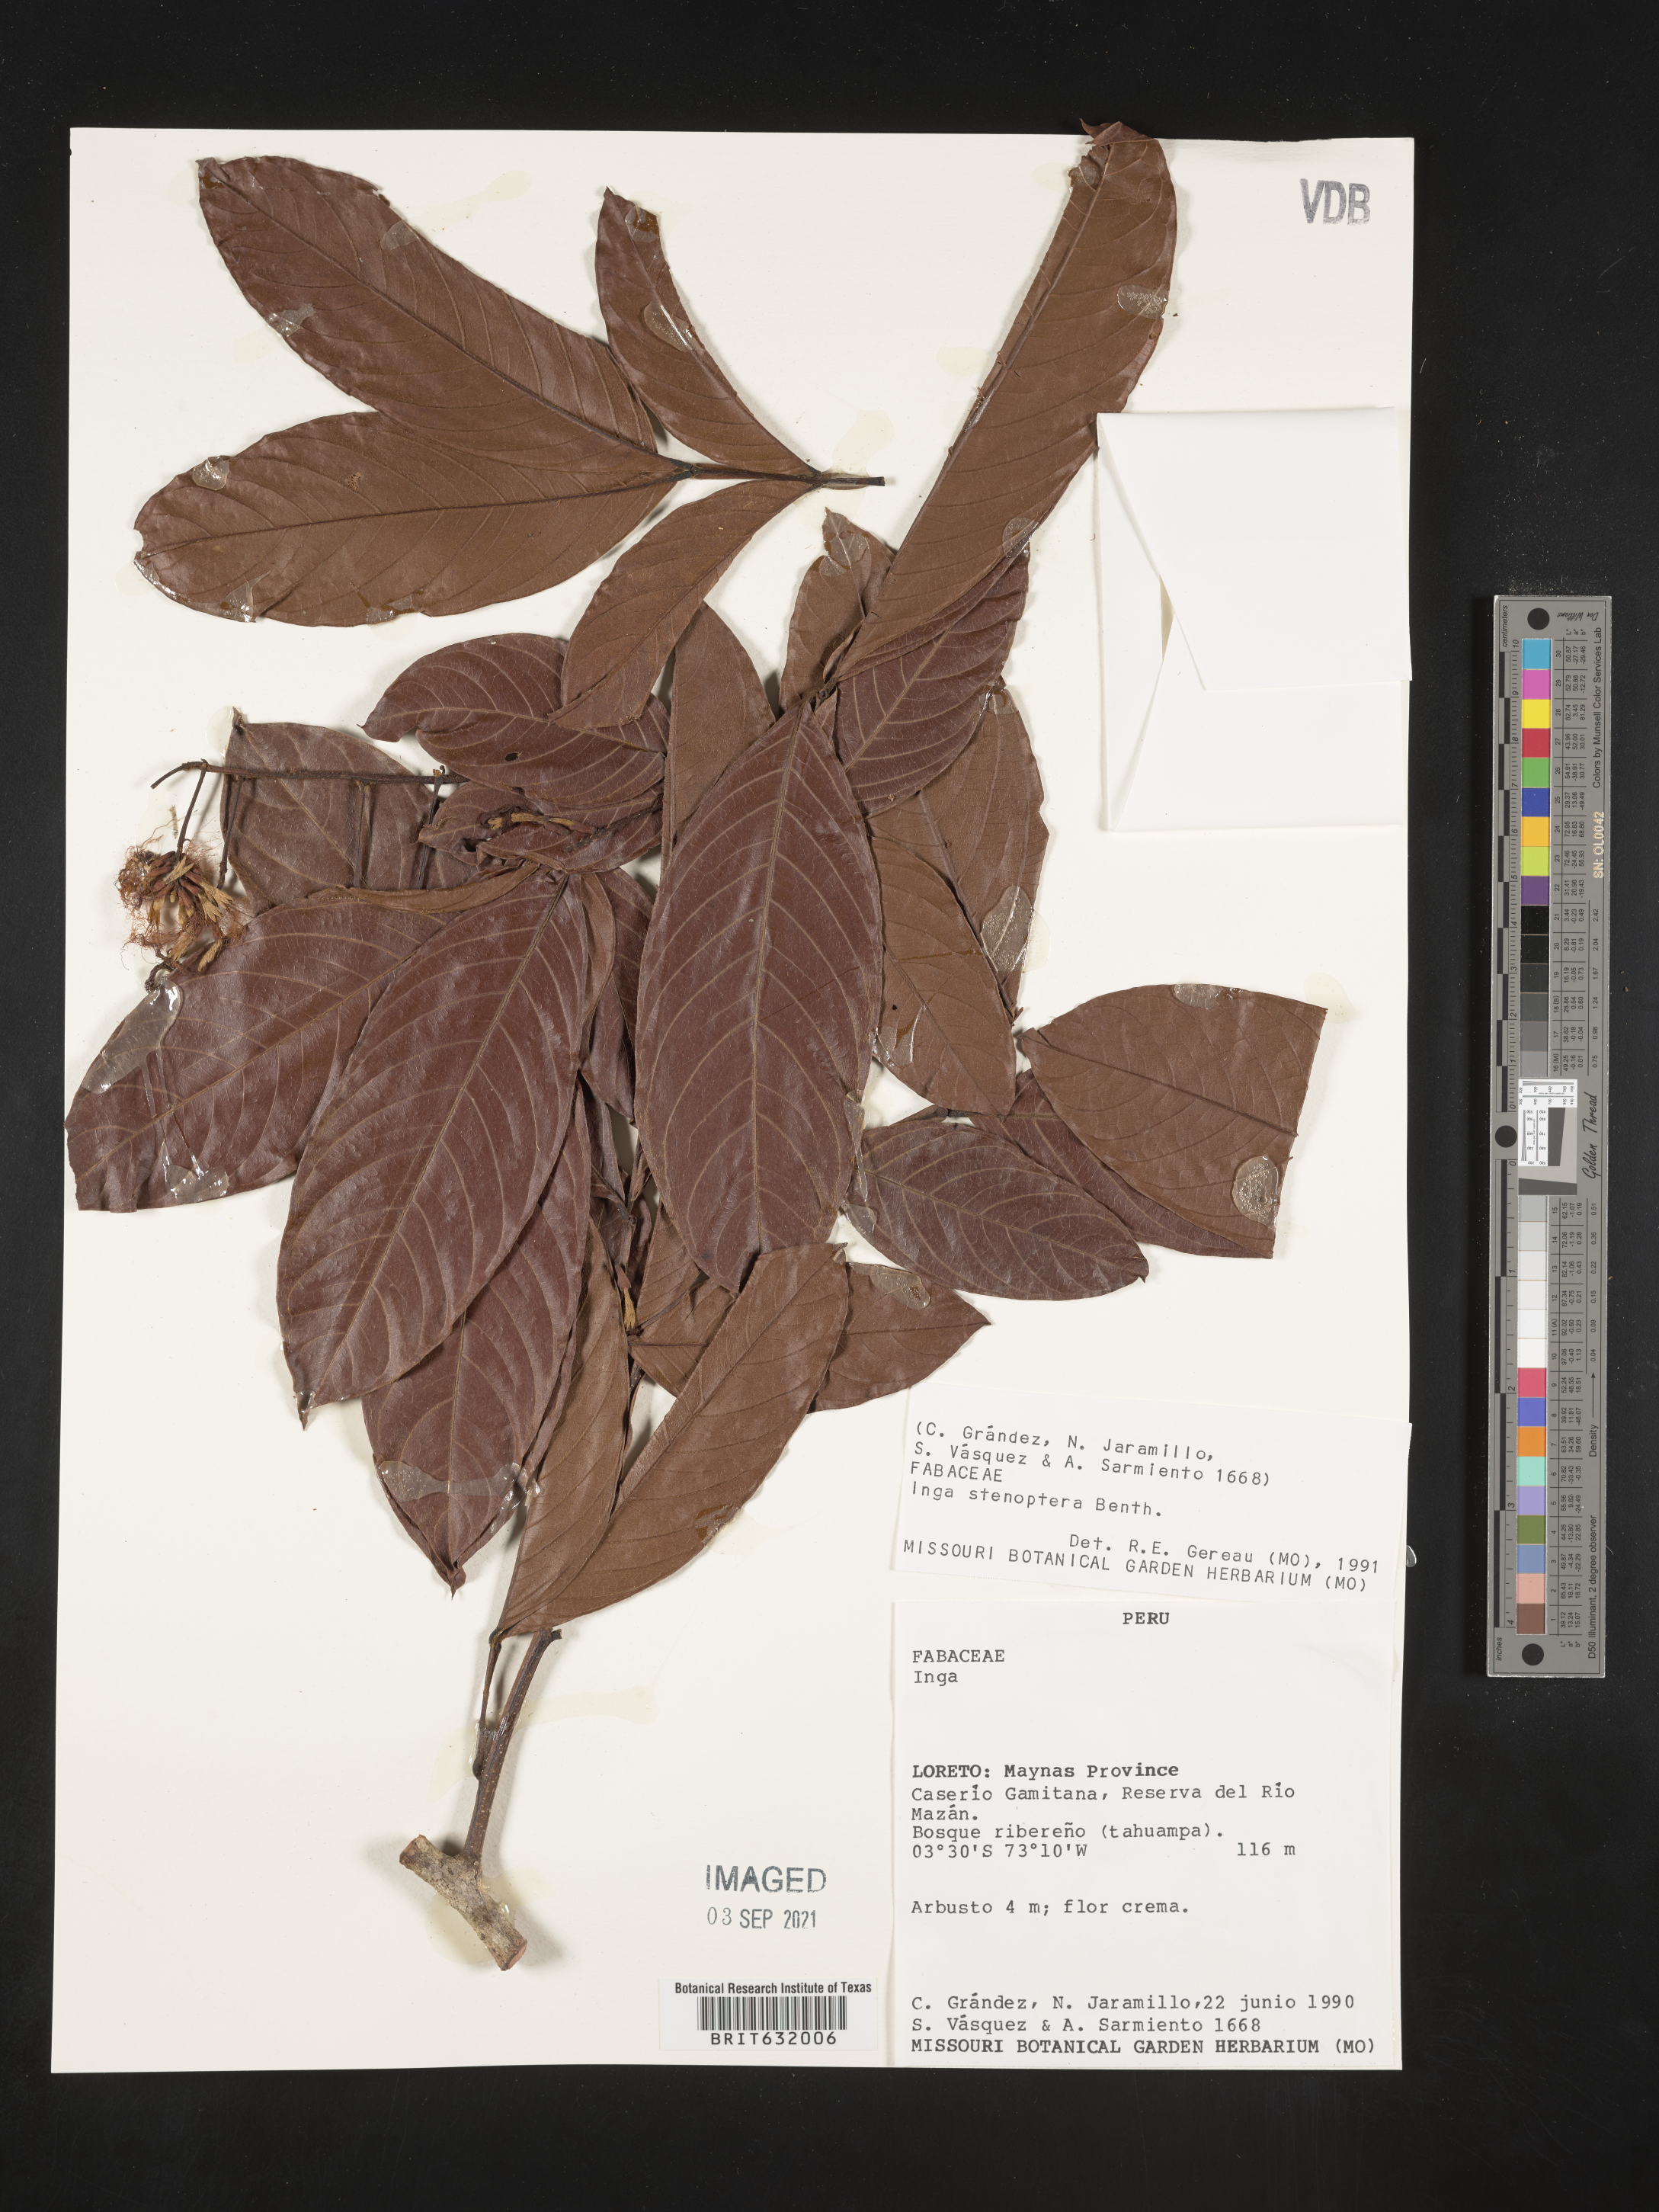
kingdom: Plantae
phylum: Tracheophyta
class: Magnoliopsida
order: Fabales
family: Fabaceae
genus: Inga
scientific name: Inga
